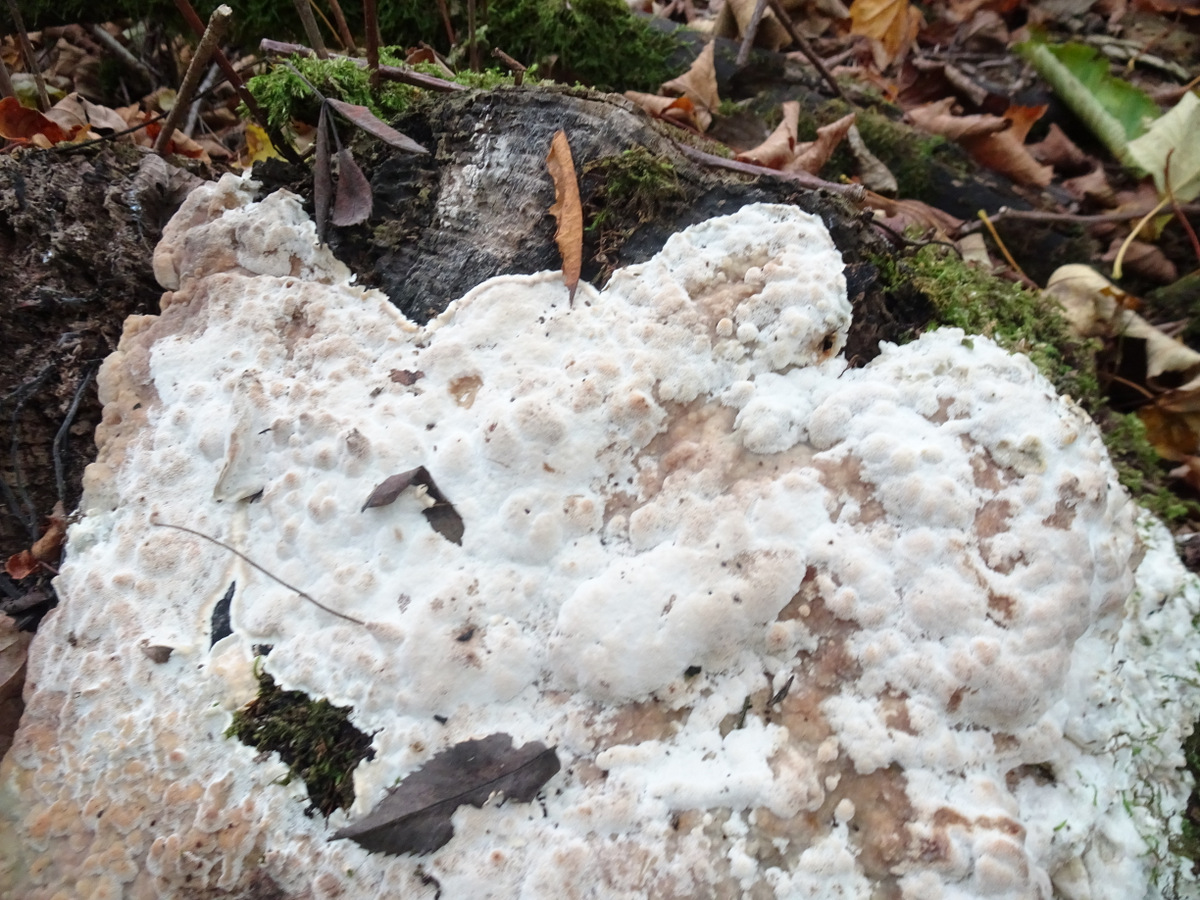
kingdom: Fungi
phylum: Basidiomycota
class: Agaricomycetes
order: Polyporales
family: Meruliaceae
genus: Physisporinus
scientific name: Physisporinus
